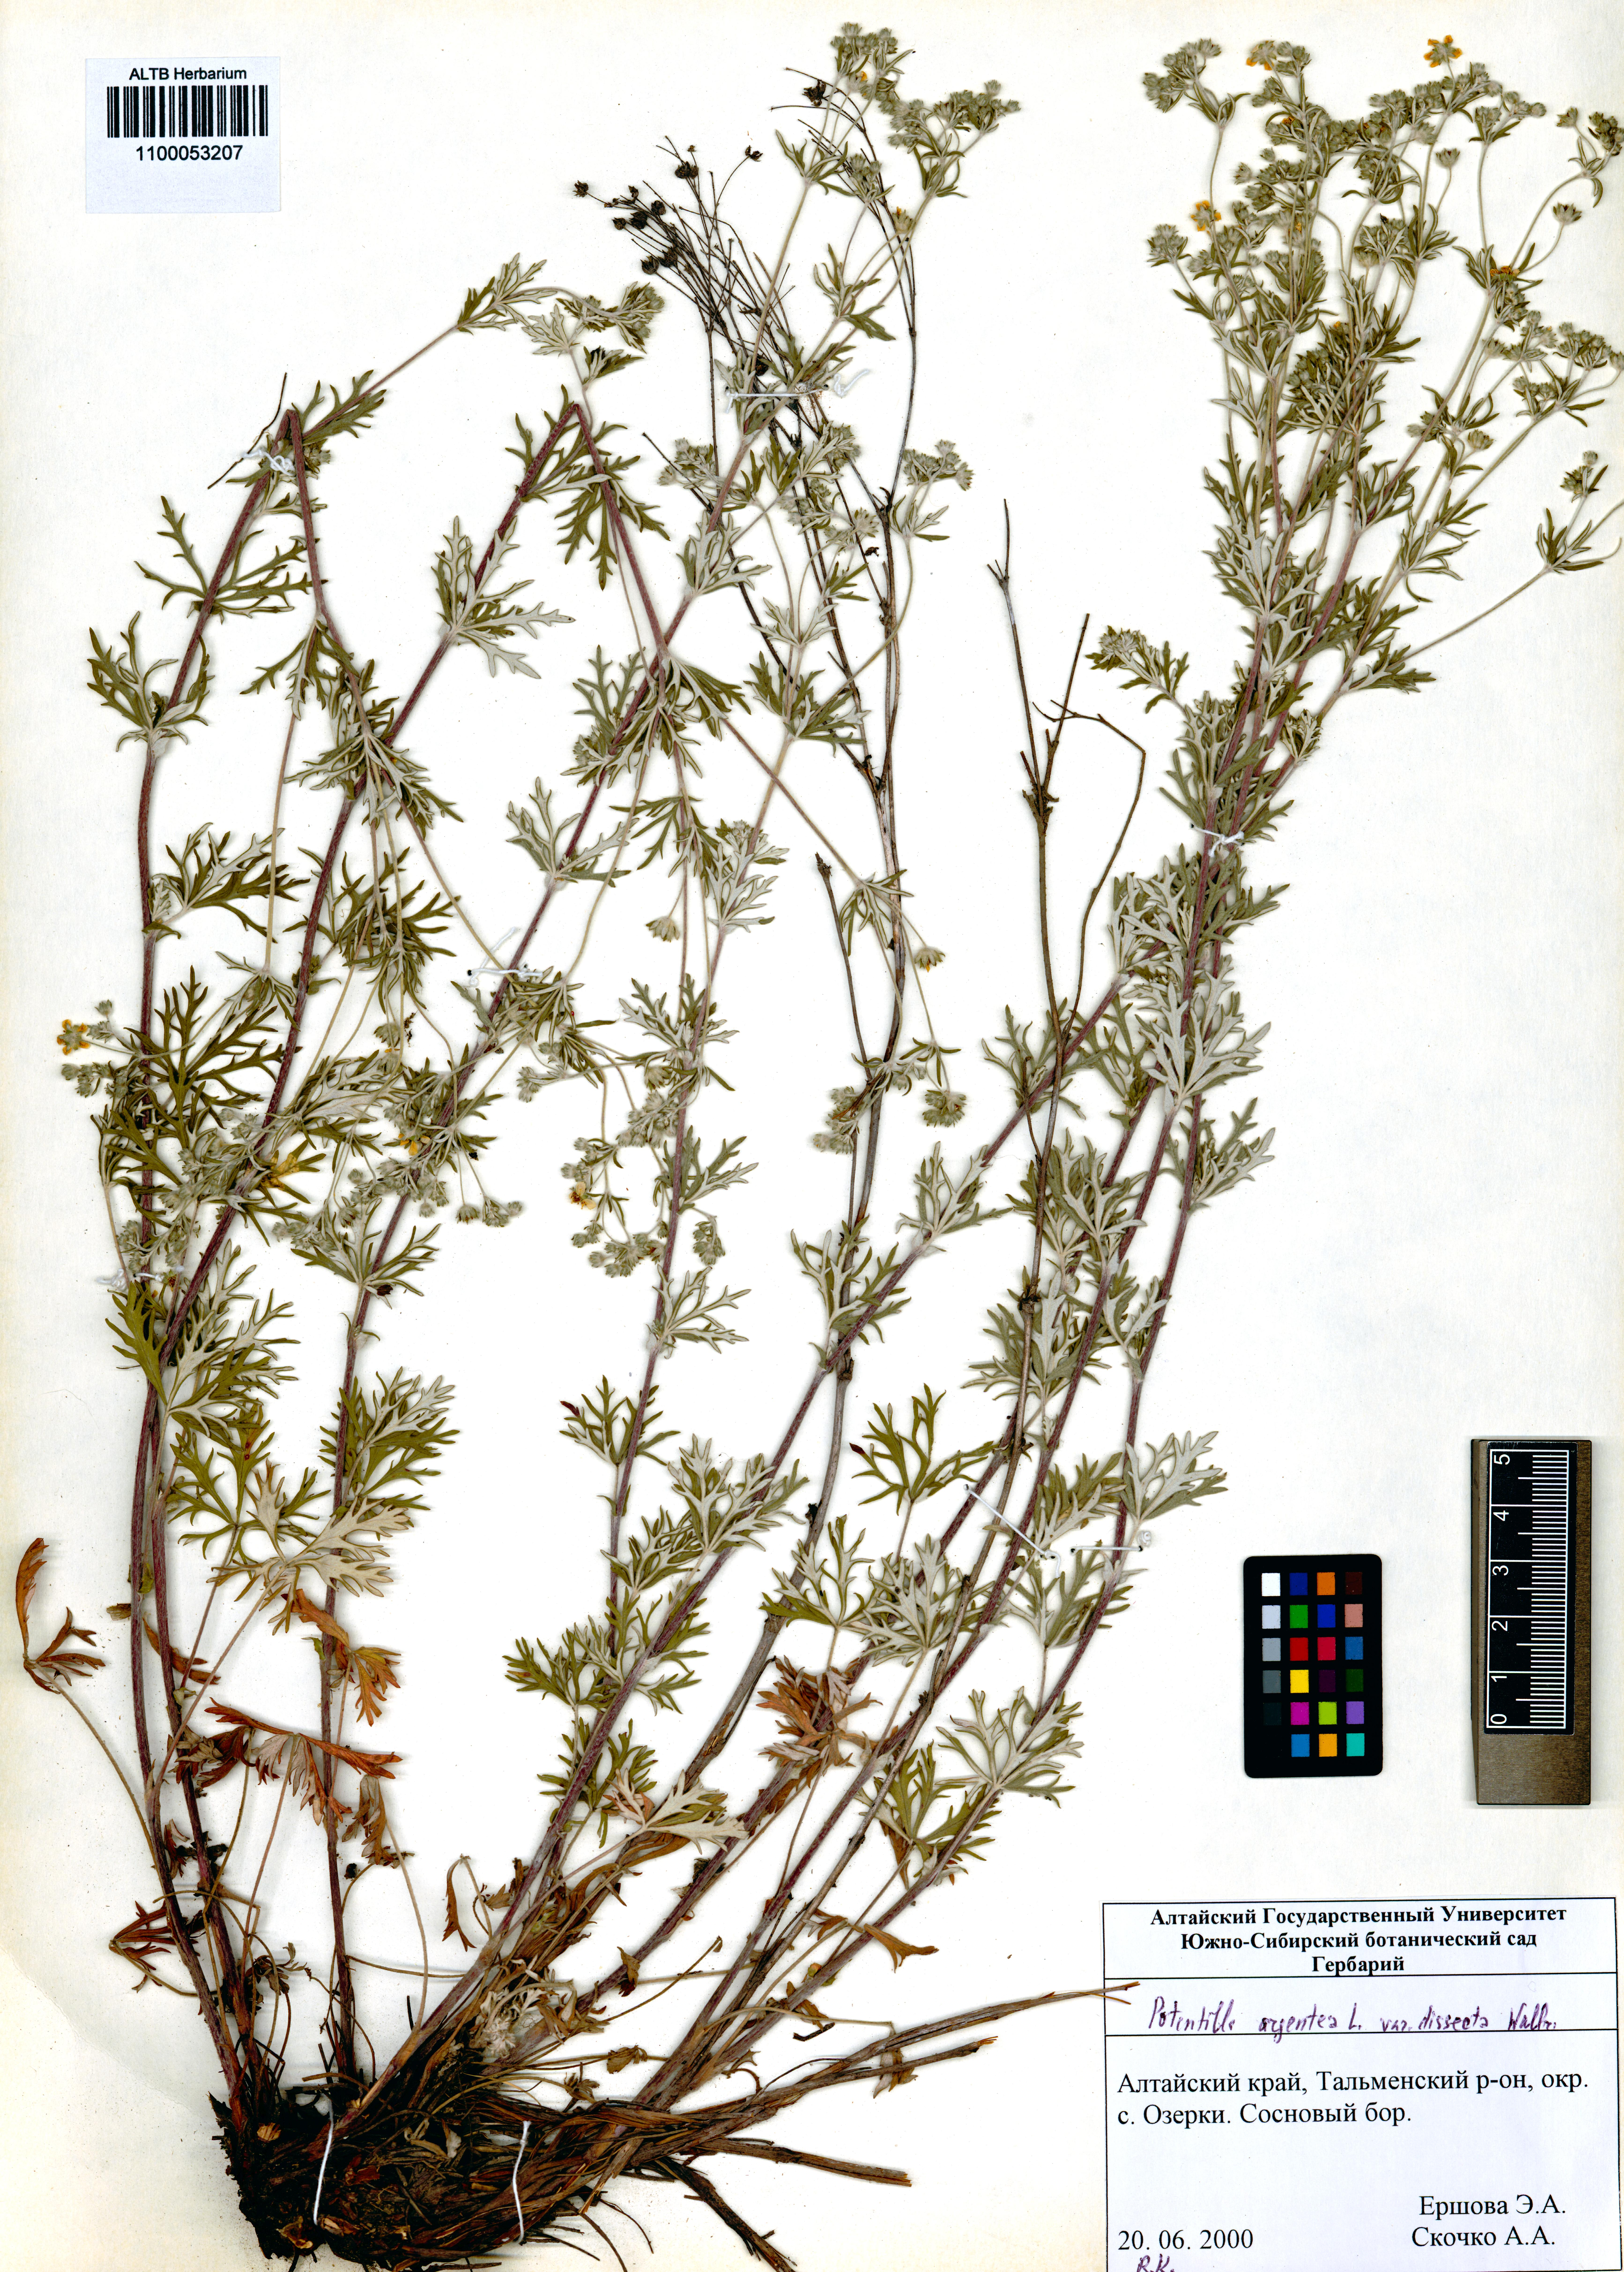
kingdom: Plantae
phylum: Tracheophyta
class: Magnoliopsida
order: Rosales
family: Rosaceae
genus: Potentilla
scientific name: Potentilla argentea
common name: Hoary cinquefoil
